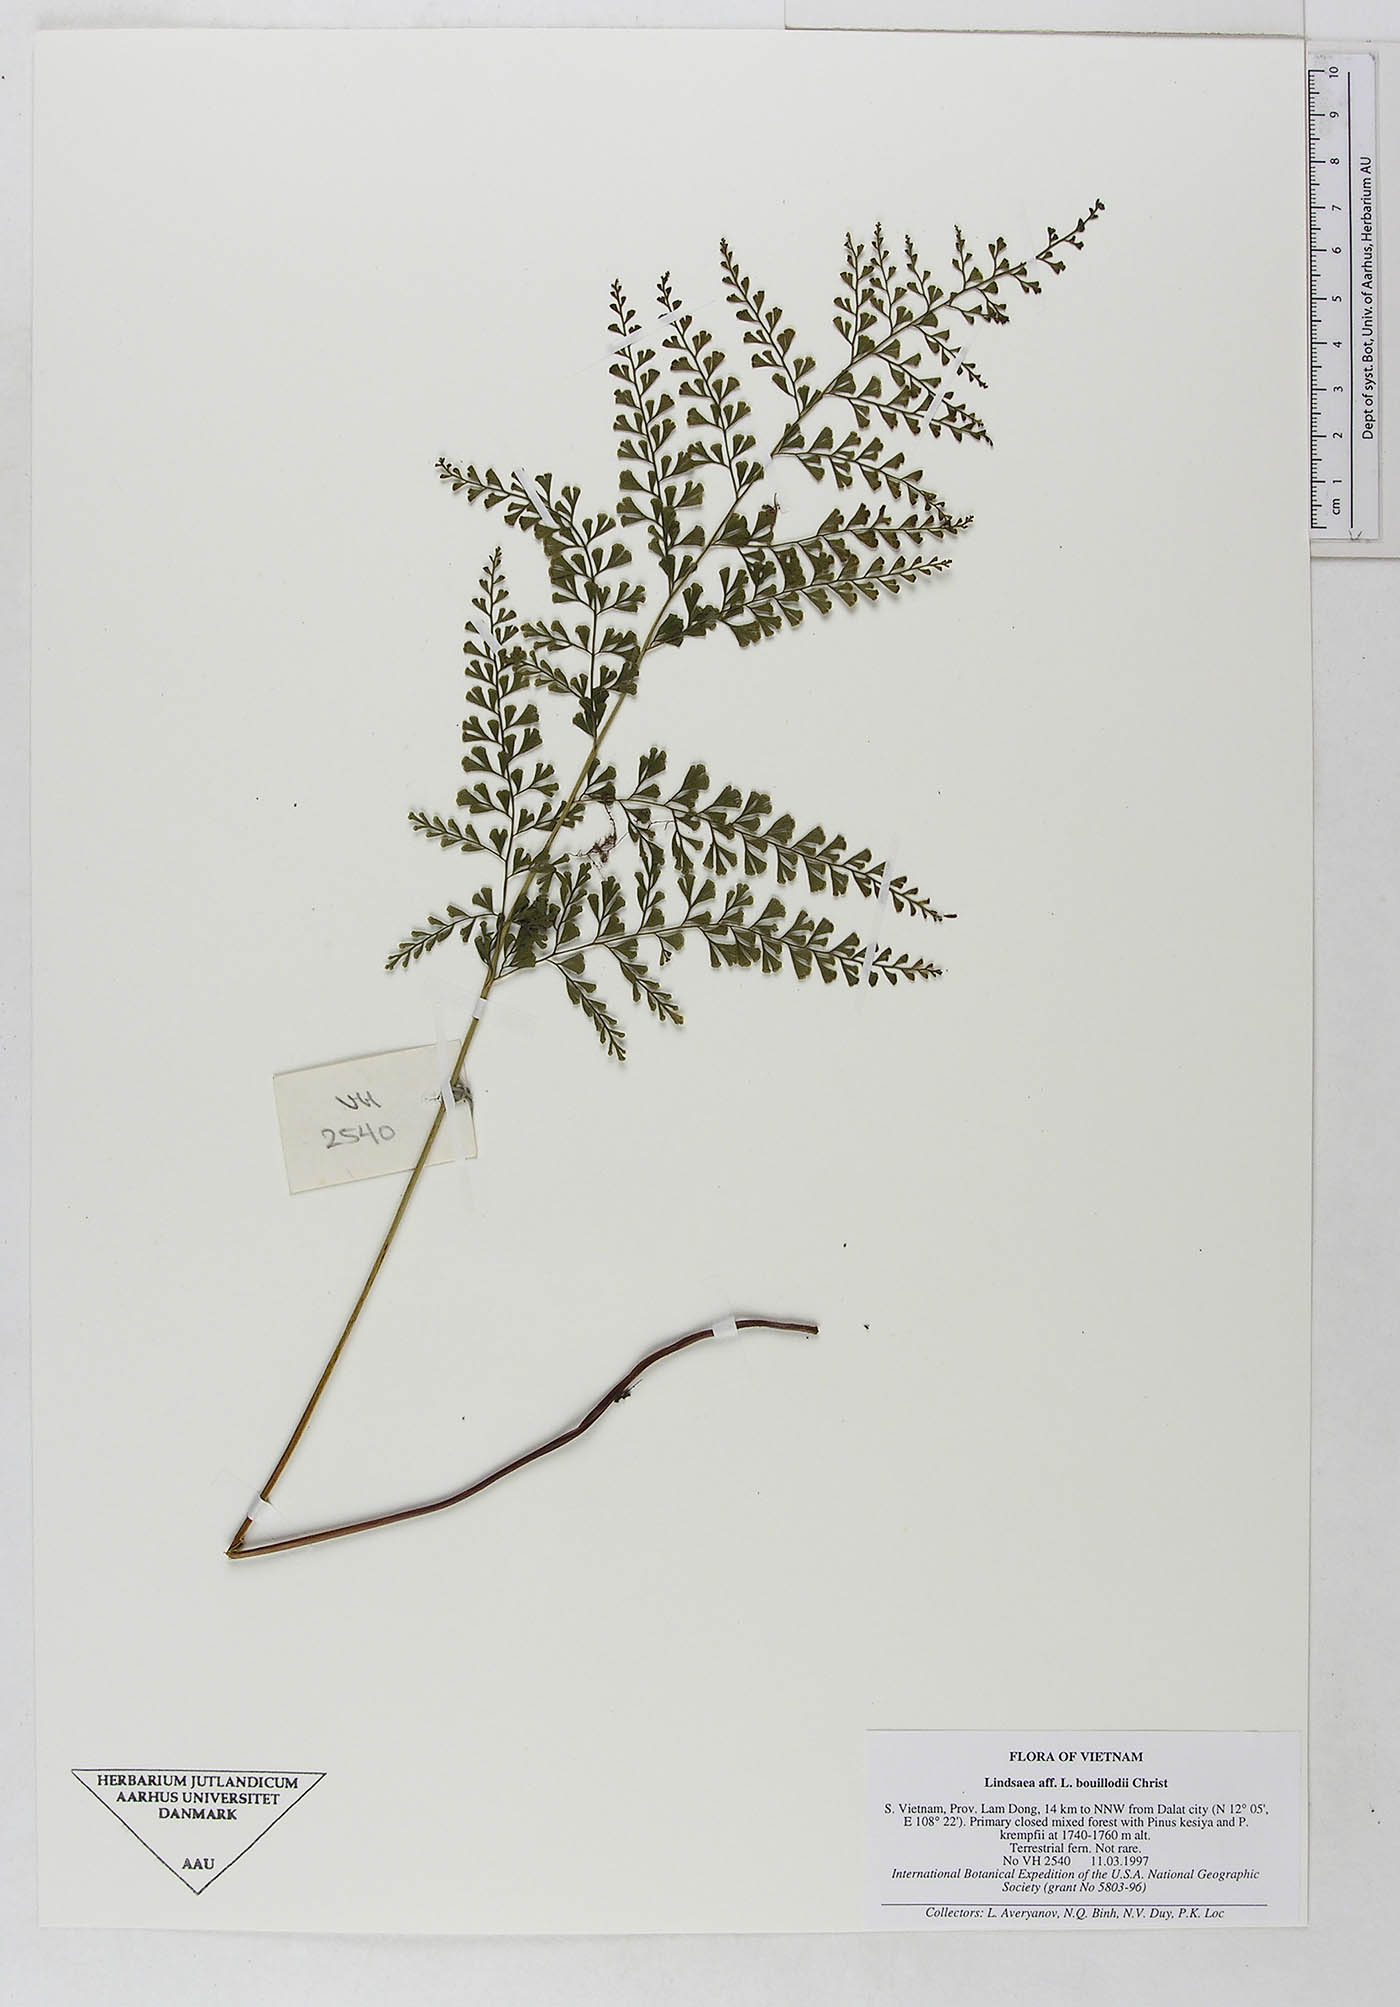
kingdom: Plantae
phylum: Tracheophyta
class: Polypodiopsida
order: Polypodiales
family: Dennstaedtiaceae
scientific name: Dennstaedtiaceae
